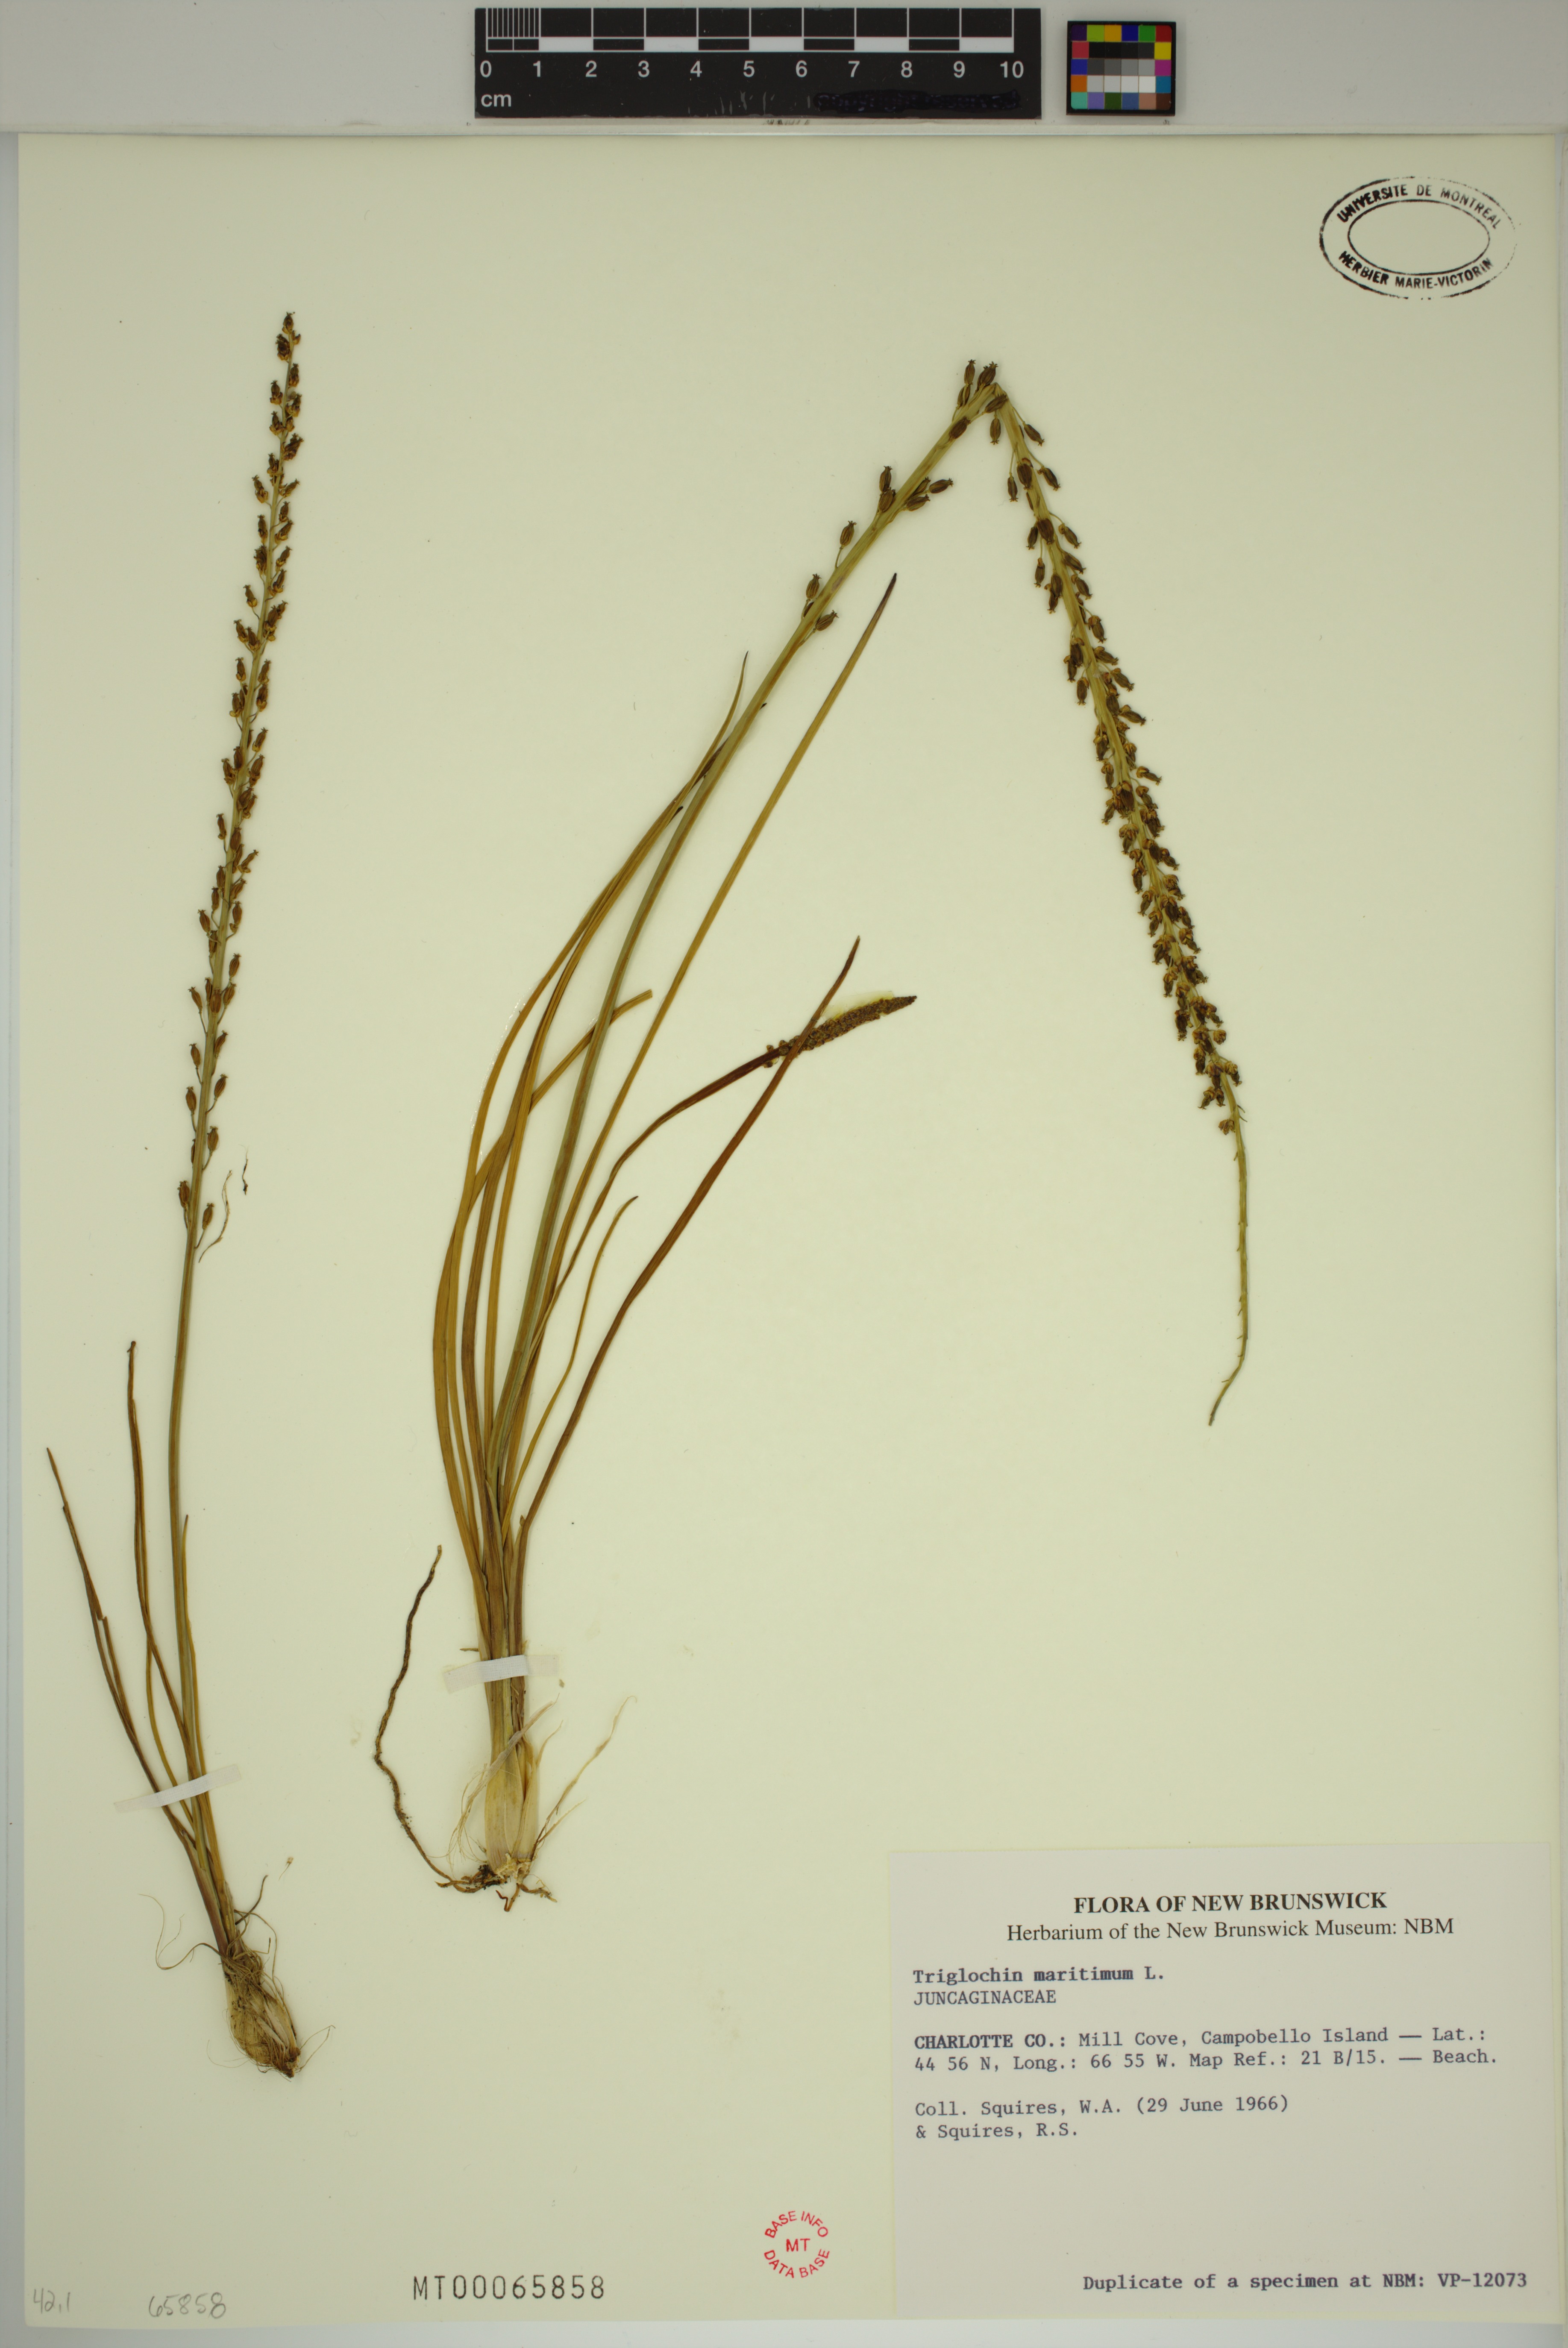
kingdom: Plantae
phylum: Tracheophyta
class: Liliopsida
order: Alismatales
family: Juncaginaceae
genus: Triglochin
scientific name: Triglochin maritima
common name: Sea arrowgrass
